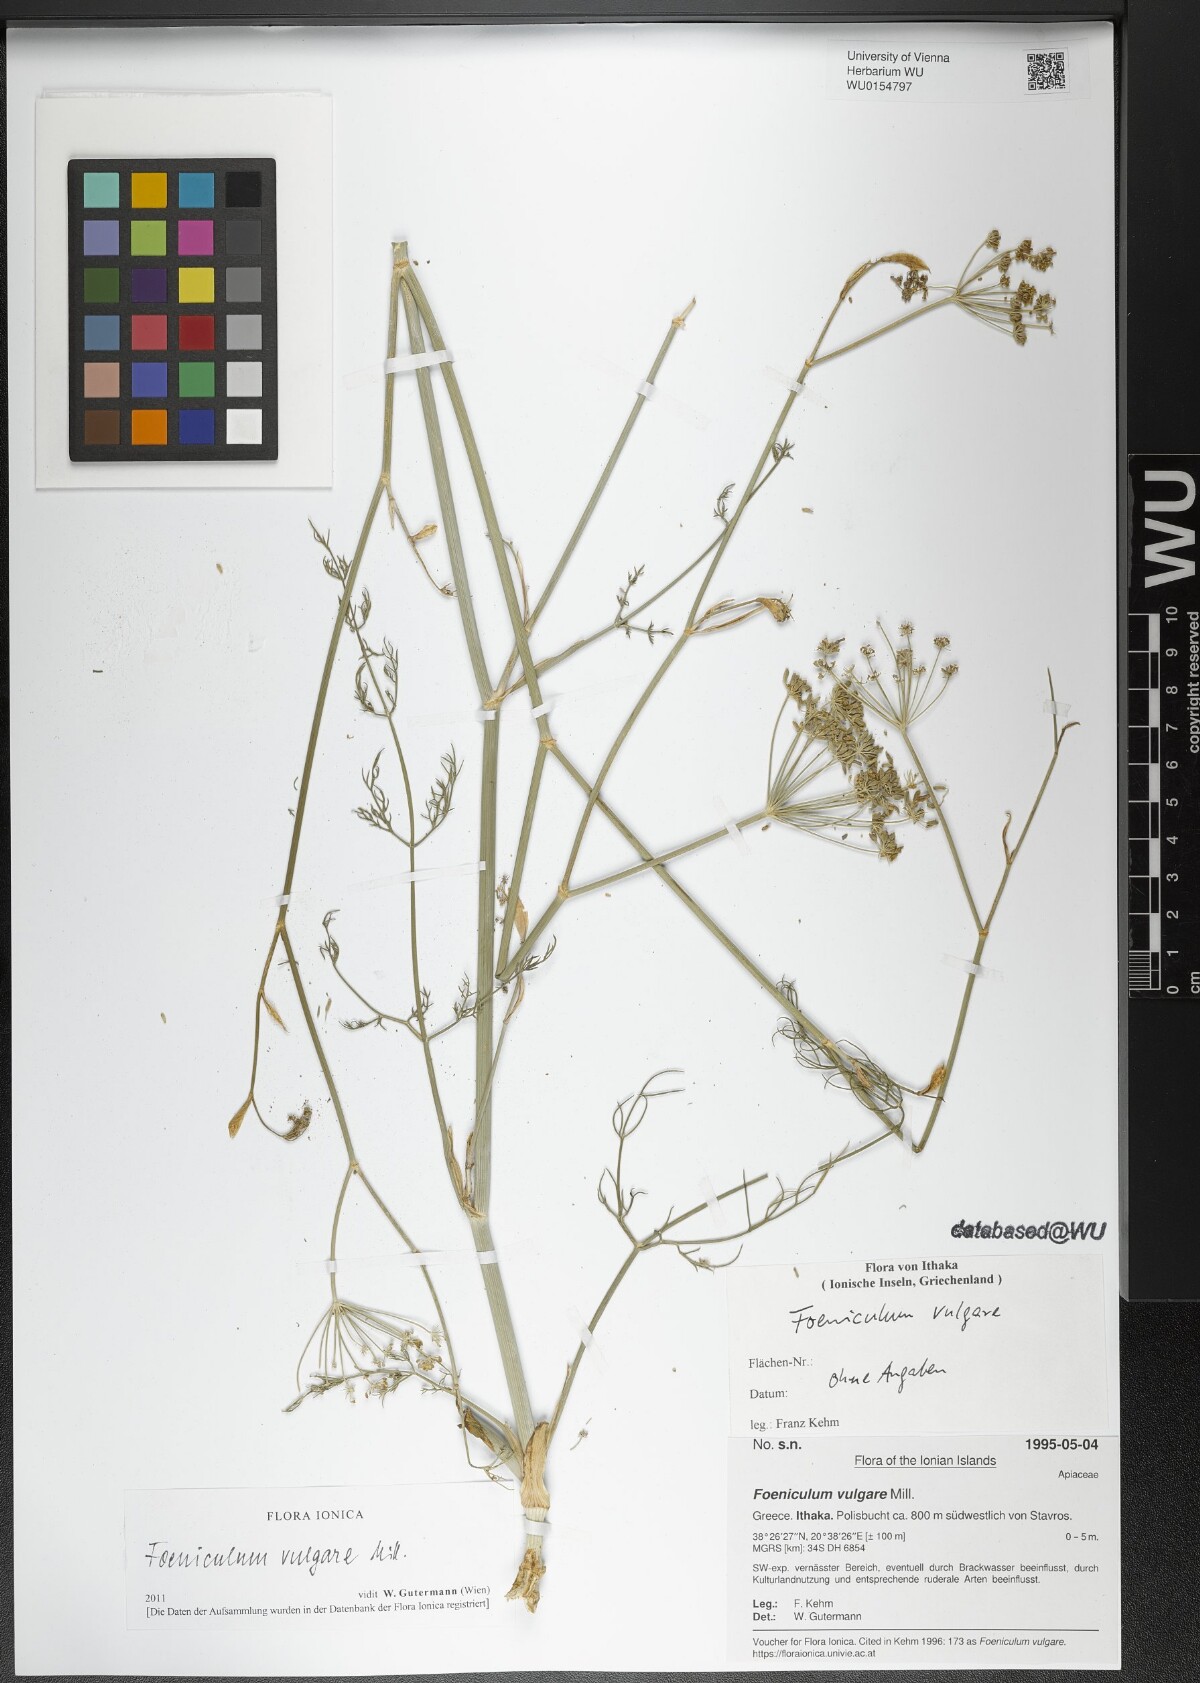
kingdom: Plantae
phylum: Tracheophyta
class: Magnoliopsida
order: Apiales
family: Apiaceae
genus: Foeniculum
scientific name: Foeniculum vulgare
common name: Fennel
